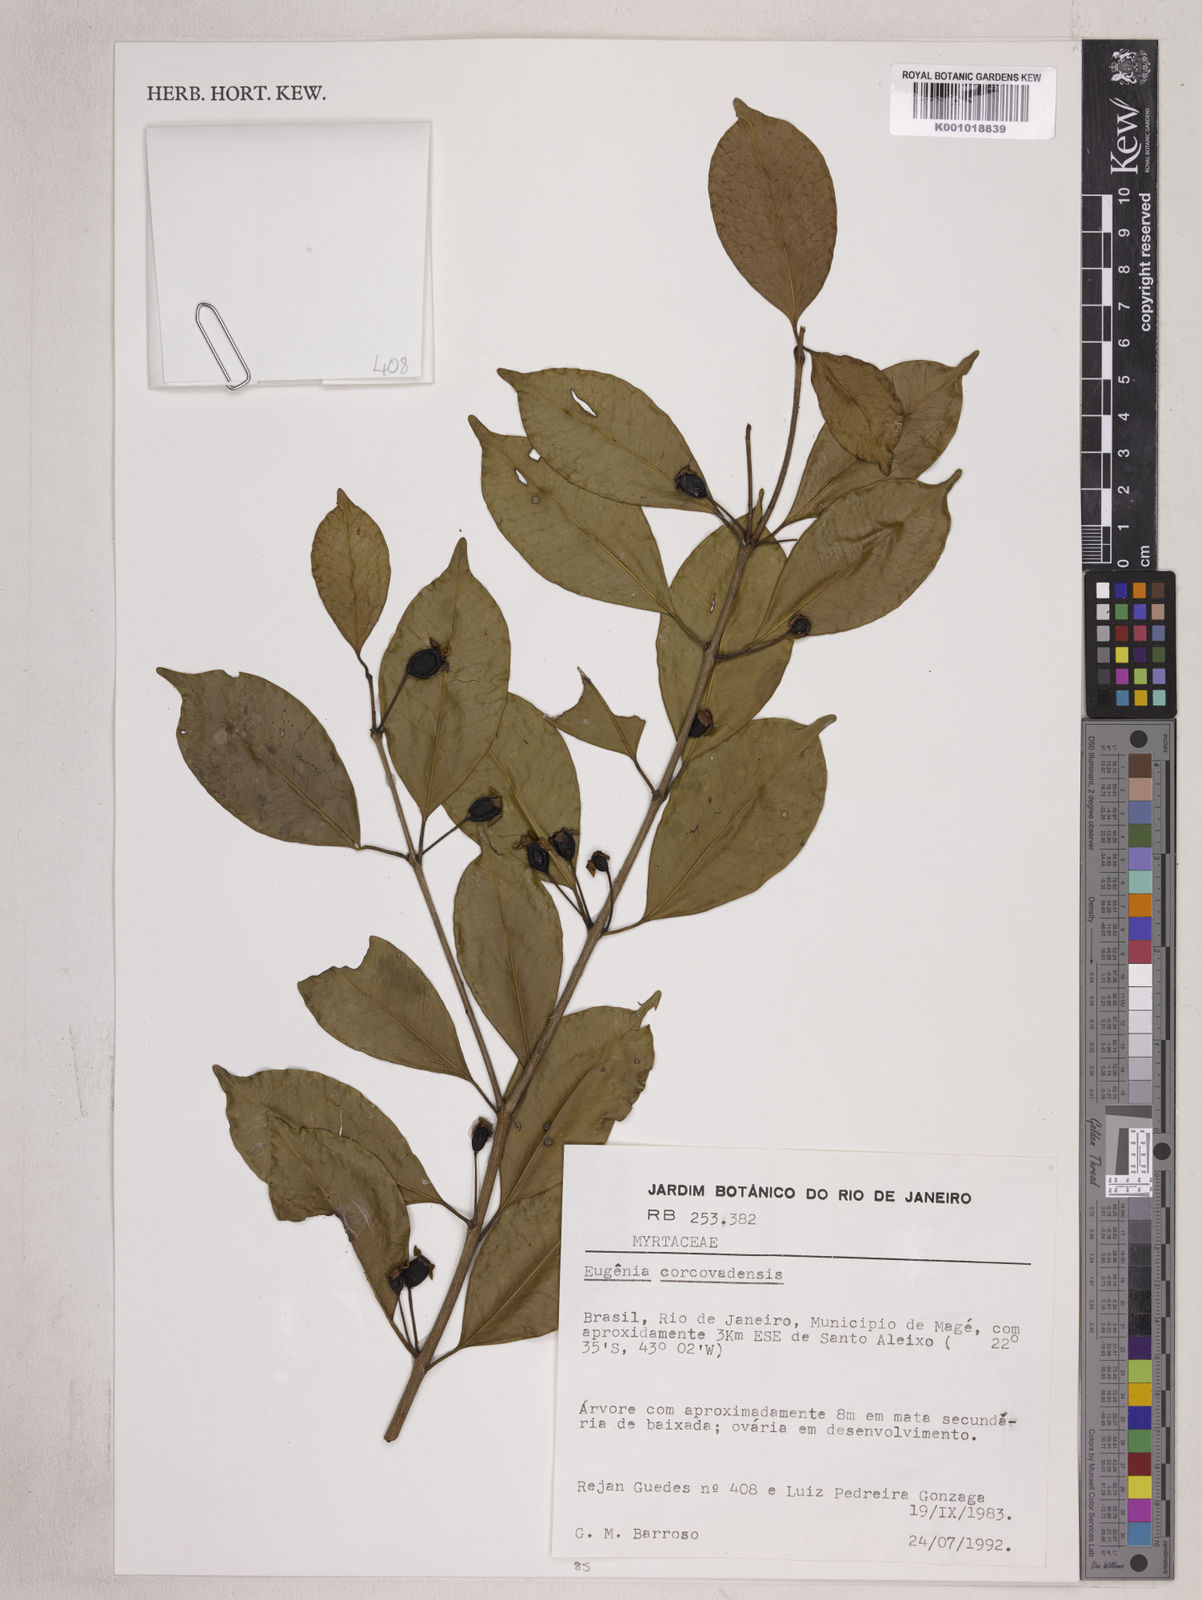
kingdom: Plantae
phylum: Tracheophyta
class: Magnoliopsida
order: Myrtales
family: Myrtaceae
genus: Eugenia
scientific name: Eugenia corcovadensis
